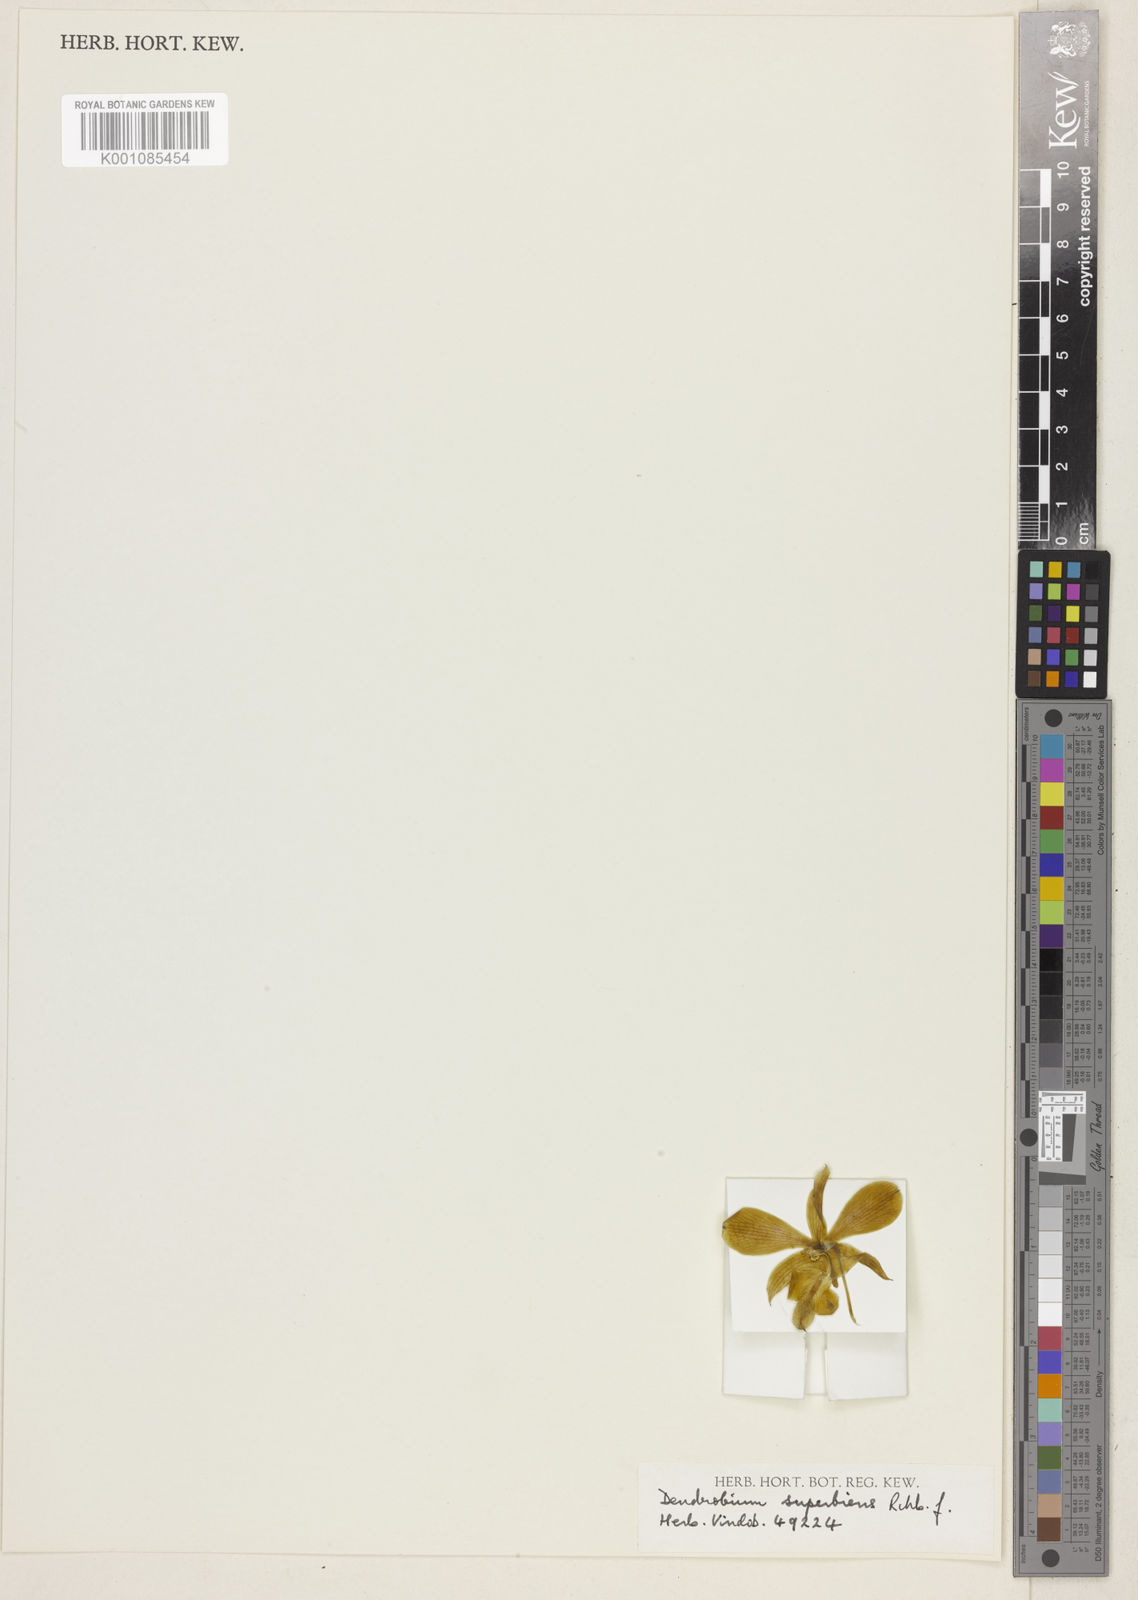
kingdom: Plantae
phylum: Tracheophyta
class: Liliopsida
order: Asparagales
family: Orchidaceae
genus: Dendrobium
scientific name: Dendrobium superbiens
